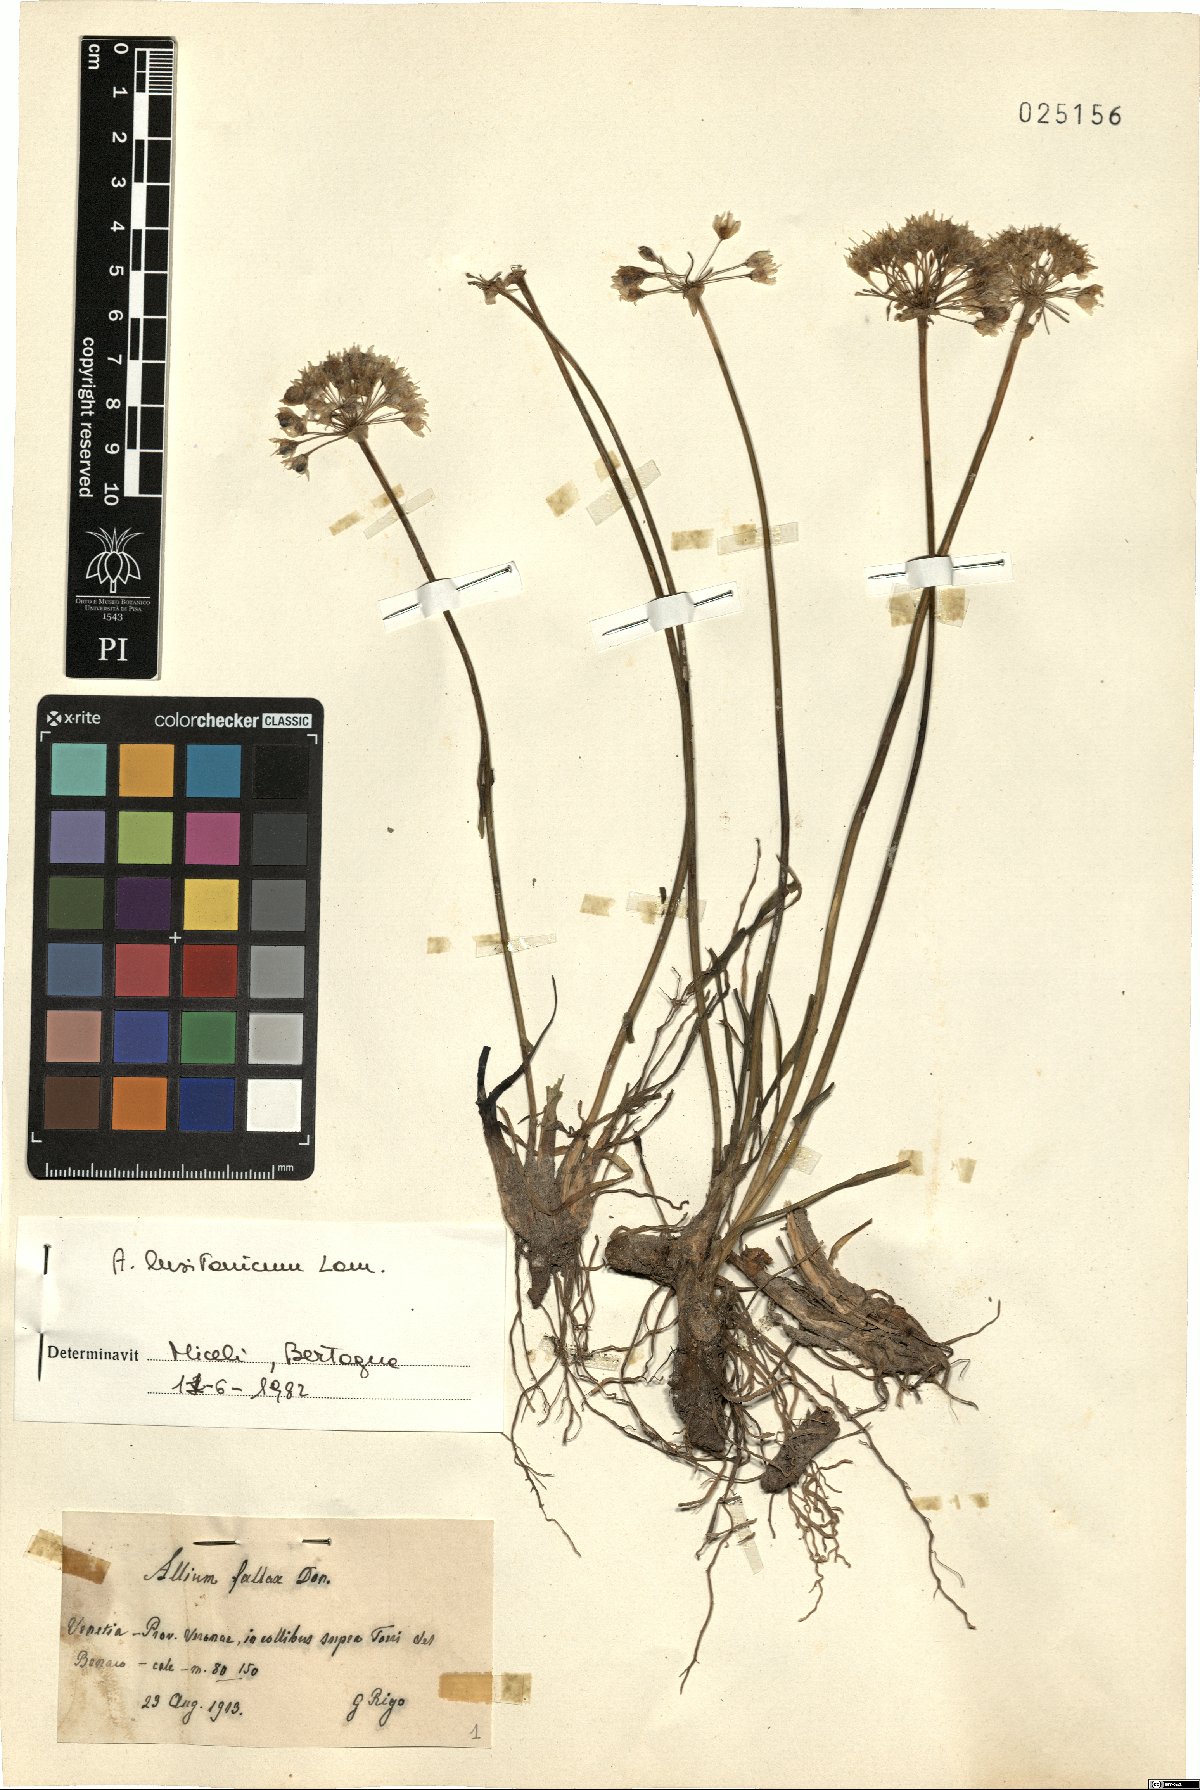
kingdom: Plantae
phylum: Tracheophyta
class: Liliopsida
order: Asparagales
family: Amaryllidaceae
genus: Allium
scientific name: Allium lusitanicum
